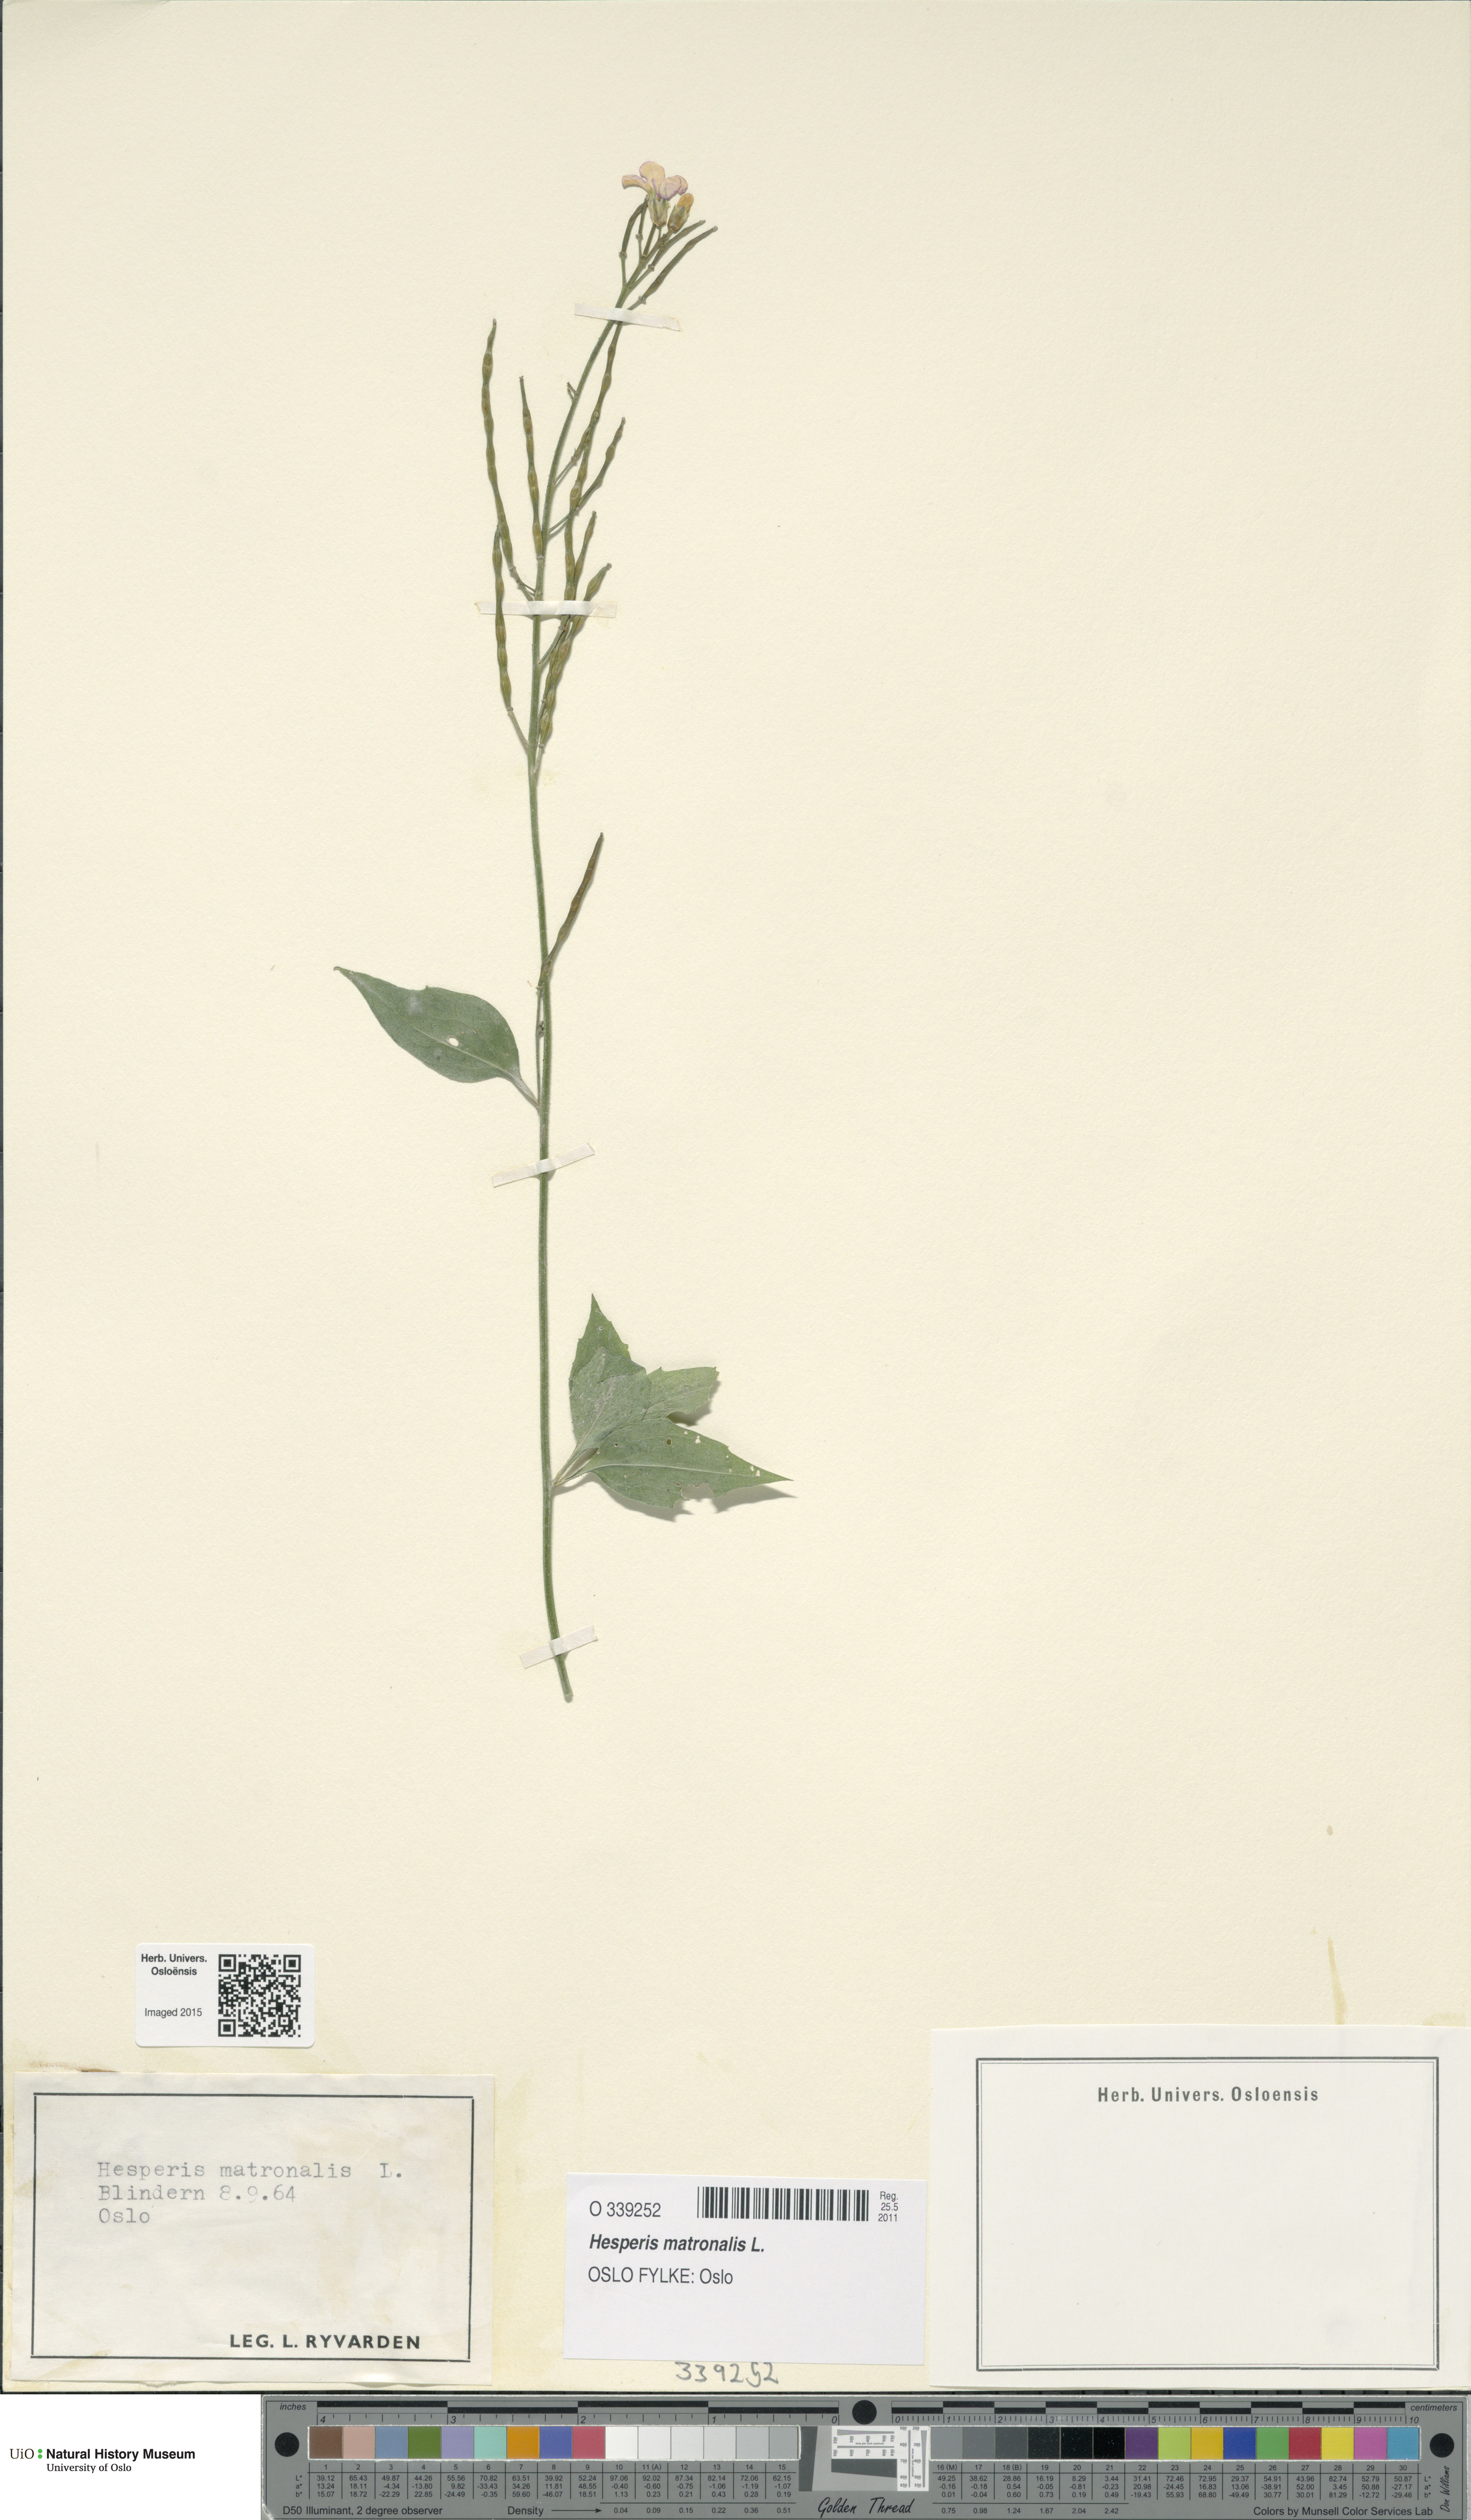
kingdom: Plantae
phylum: Tracheophyta
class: Magnoliopsida
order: Brassicales
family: Brassicaceae
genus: Hesperis
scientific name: Hesperis matronalis
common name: Dame's-violet
